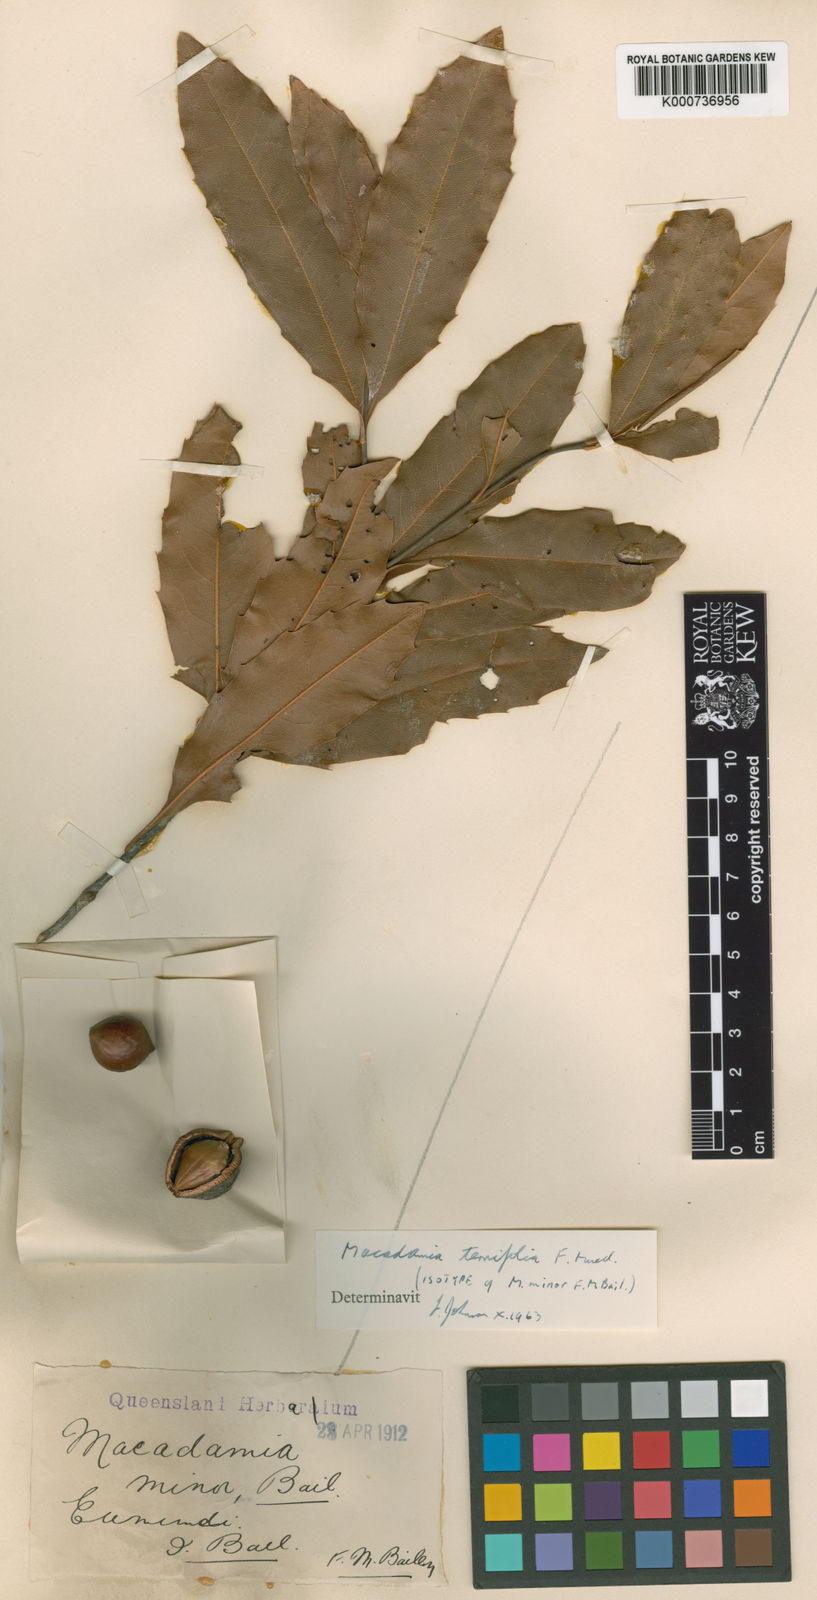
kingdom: Plantae
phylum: Tracheophyta
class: Magnoliopsida
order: Proteales
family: Proteaceae
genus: Macadamia
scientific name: Macadamia ternifolia
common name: Australian-nut
